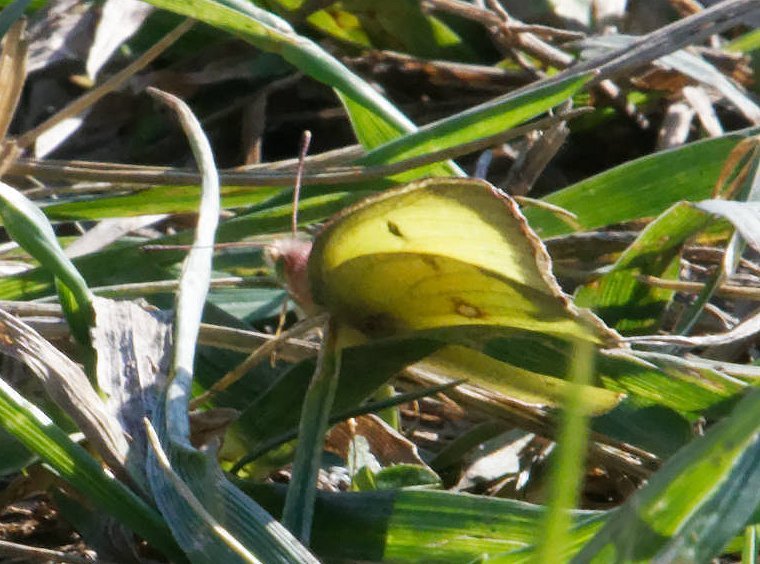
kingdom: Animalia
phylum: Arthropoda
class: Insecta
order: Lepidoptera
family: Pieridae
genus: Colias
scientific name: Colias philodice
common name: Clouded Sulphur
